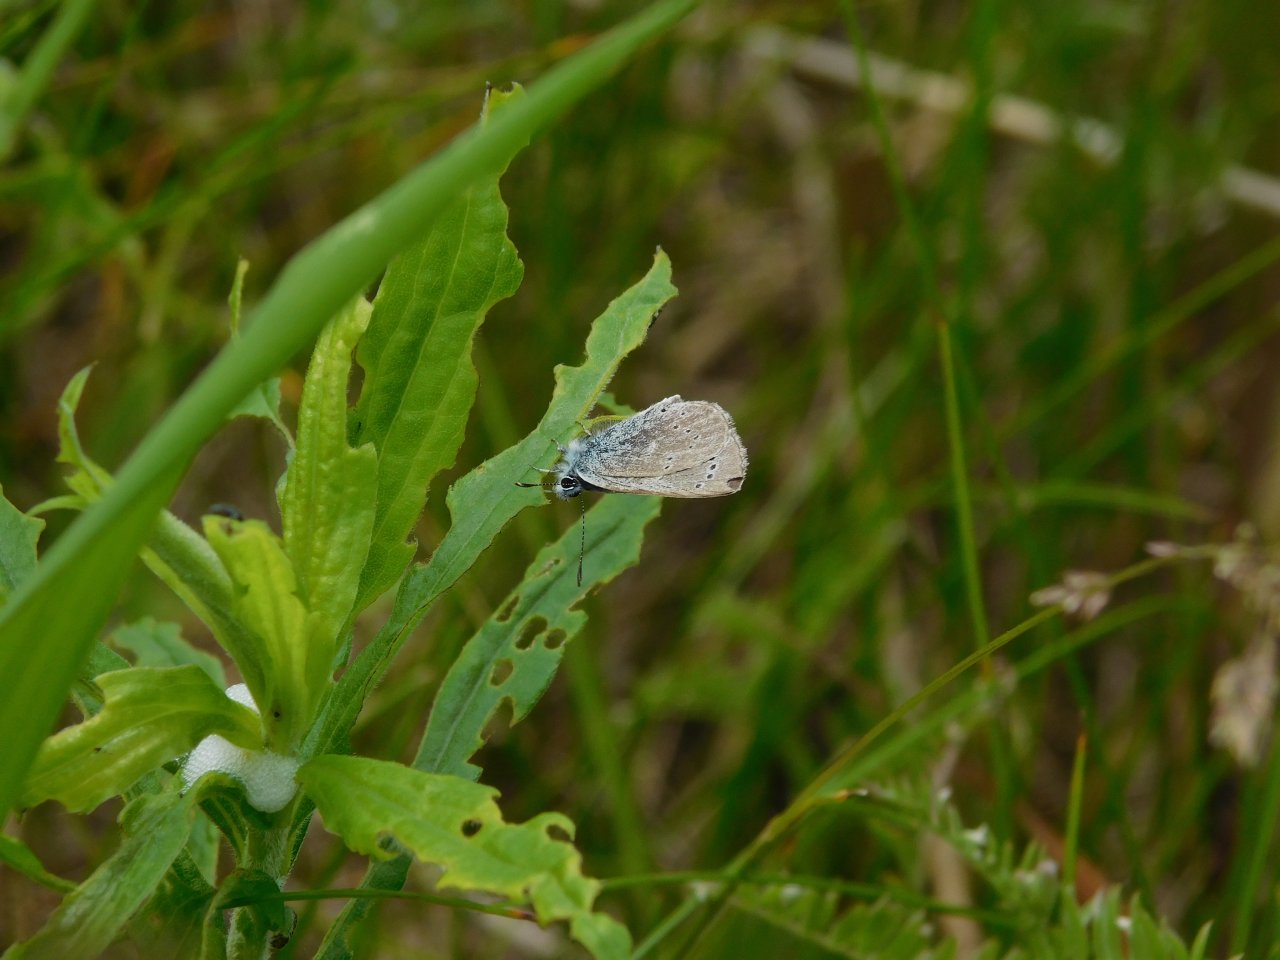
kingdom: Animalia
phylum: Arthropoda
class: Insecta
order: Lepidoptera
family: Lycaenidae
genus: Glaucopsyche
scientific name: Glaucopsyche lygdamus
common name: Silvery Blue
